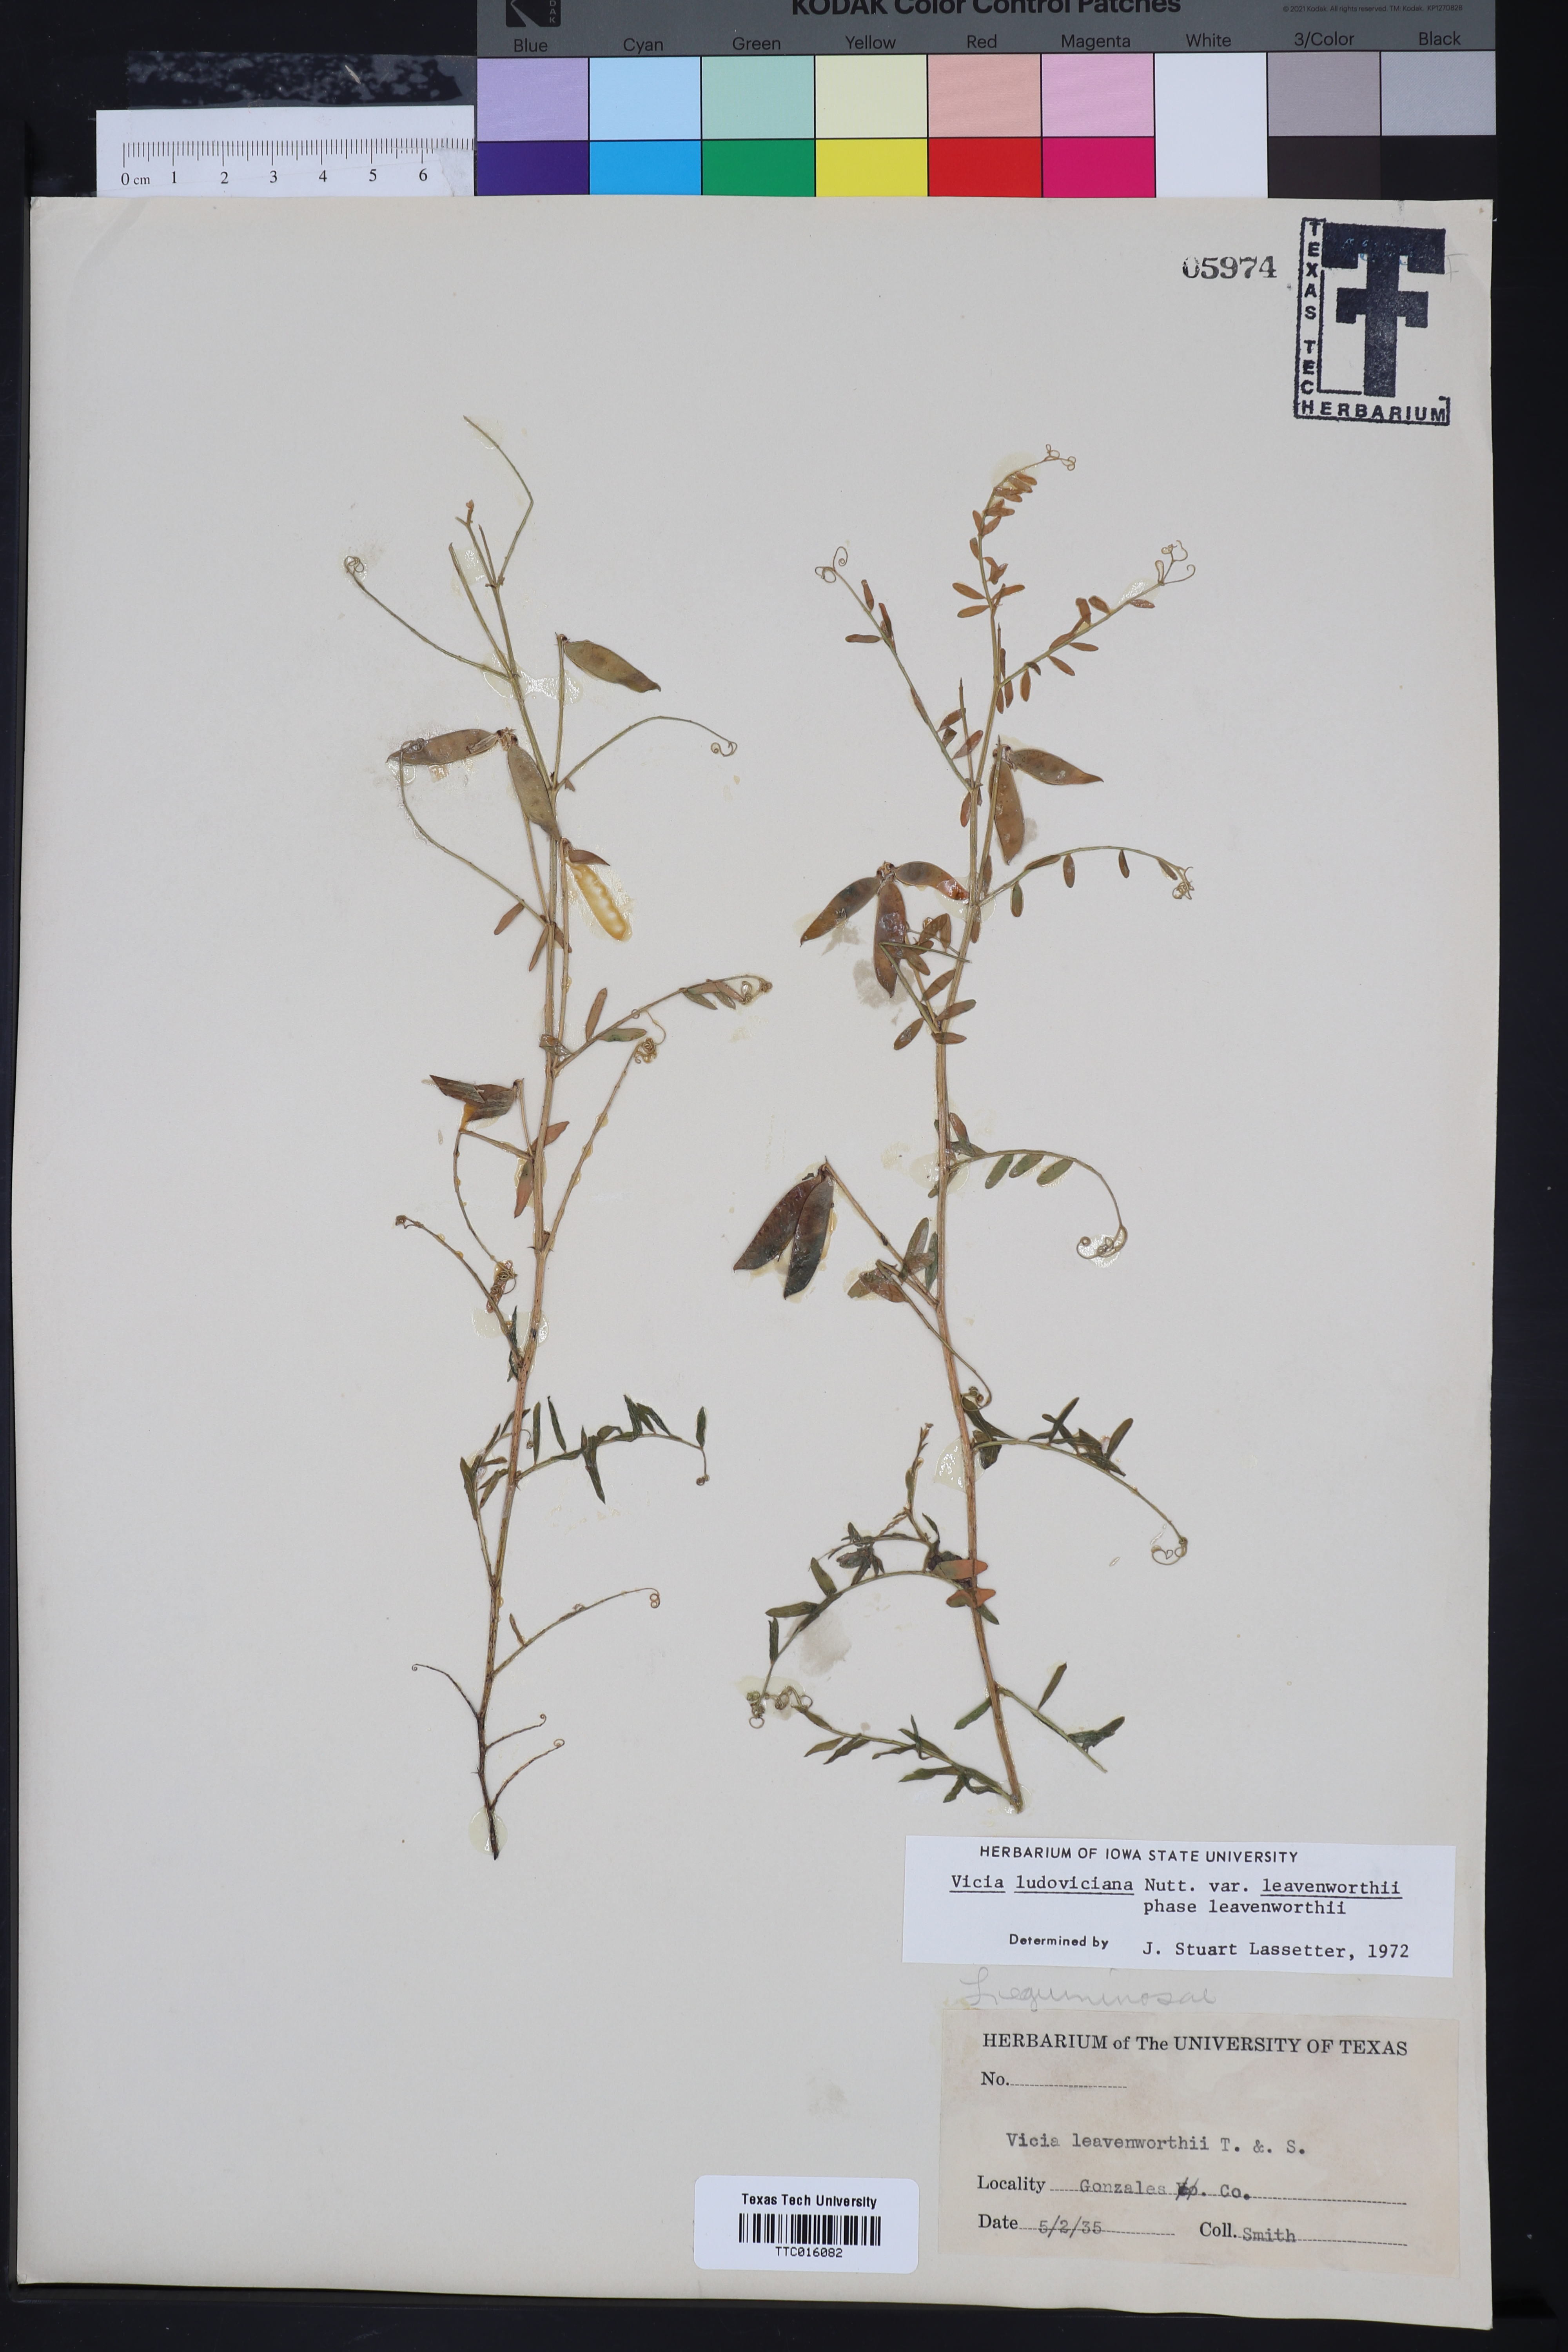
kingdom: Plantae
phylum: Tracheophyta
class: Magnoliopsida
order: Fabales
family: Fabaceae
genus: Vicia
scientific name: Vicia ludoviciana
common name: Louisiana vetch
